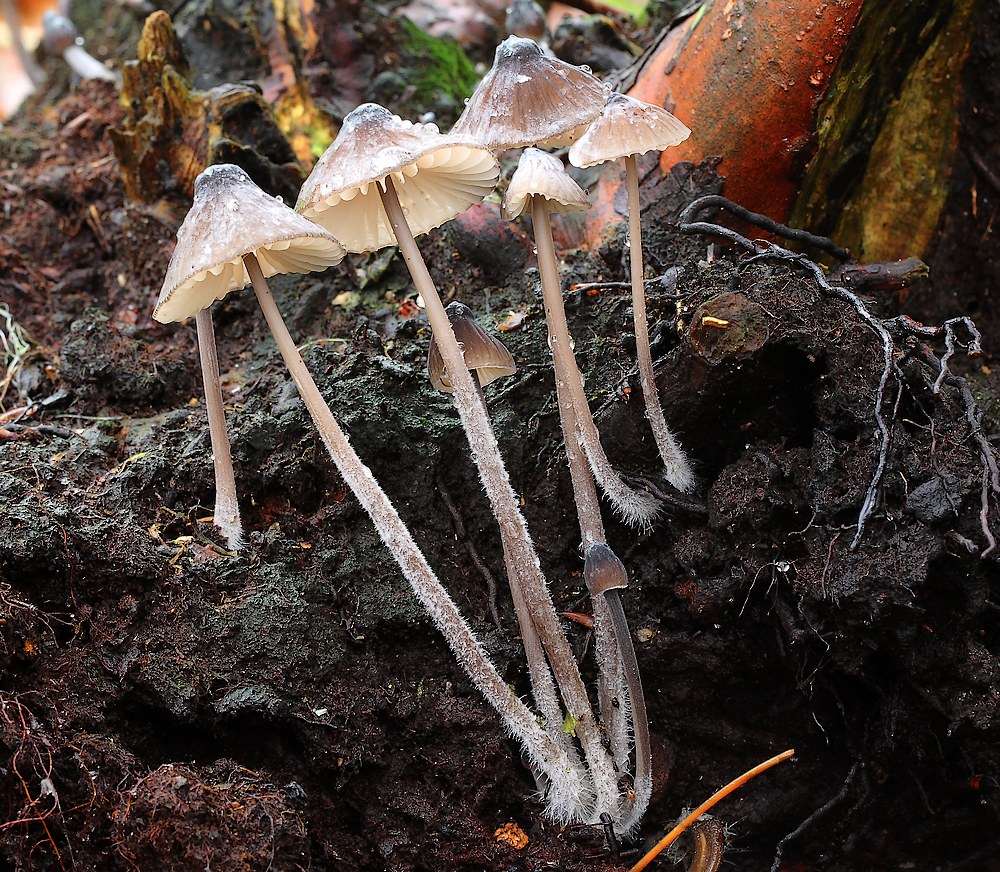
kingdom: Fungi
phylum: Basidiomycota
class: Agaricomycetes
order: Agaricales
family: Mycenaceae
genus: Mycena
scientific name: Mycena galopus
